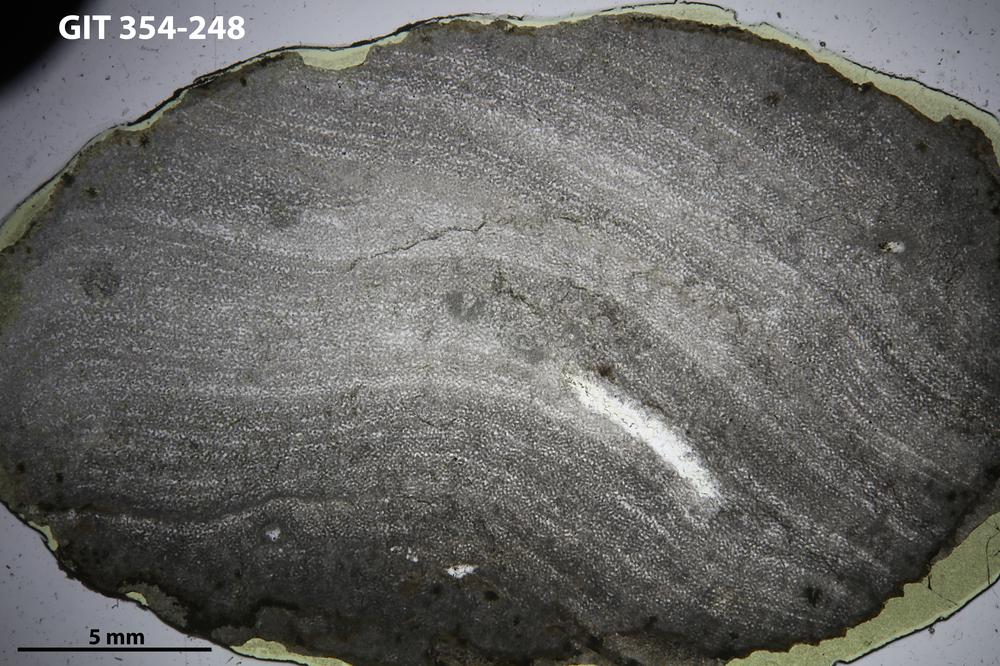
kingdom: Animalia
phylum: Porifera
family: Ecclimadictyidae
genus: Ecclimadictyon
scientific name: Ecclimadictyon Clathrodictyon microvesiculosum
